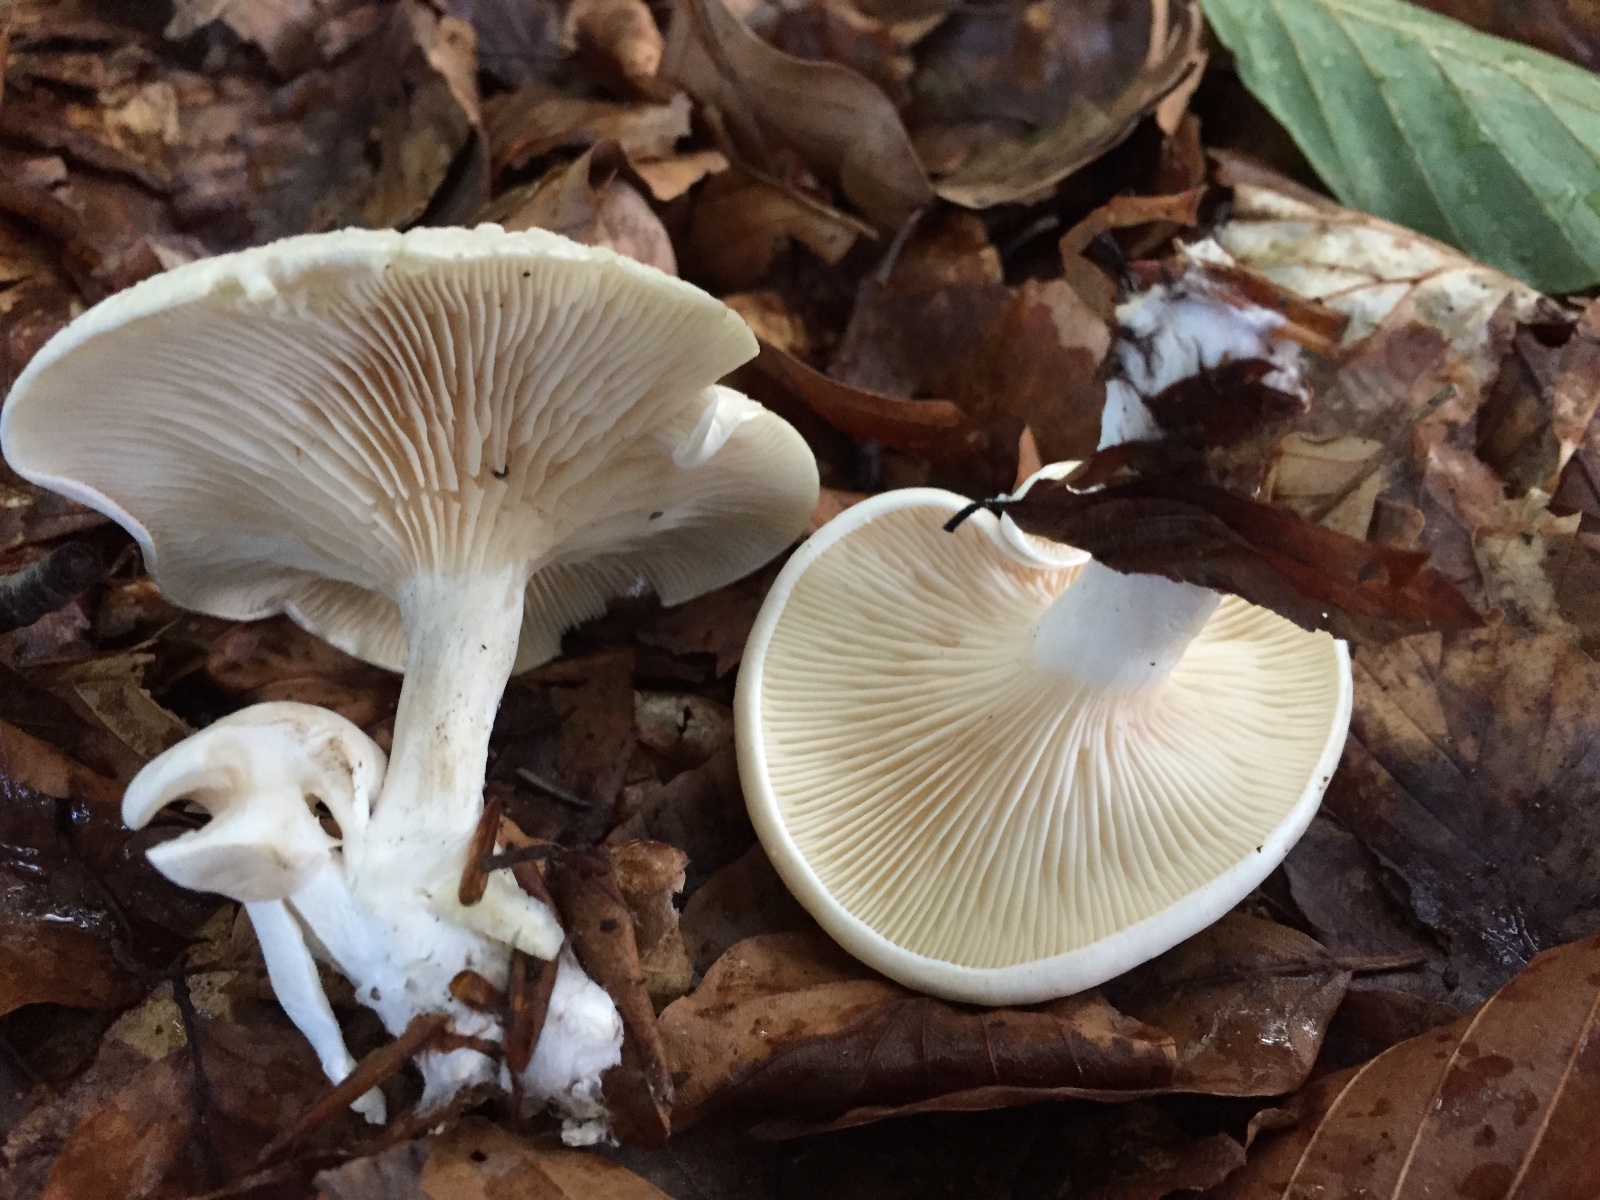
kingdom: Fungi
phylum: Basidiomycota
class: Agaricomycetes
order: Agaricales
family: Entolomataceae
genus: Clitopilus
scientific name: Clitopilus prunulus
